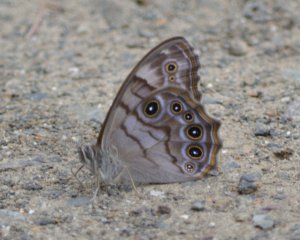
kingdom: Animalia
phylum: Arthropoda
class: Insecta
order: Lepidoptera
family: Nymphalidae
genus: Lethe
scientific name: Lethe anthedon
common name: Northern Pearly-Eye
